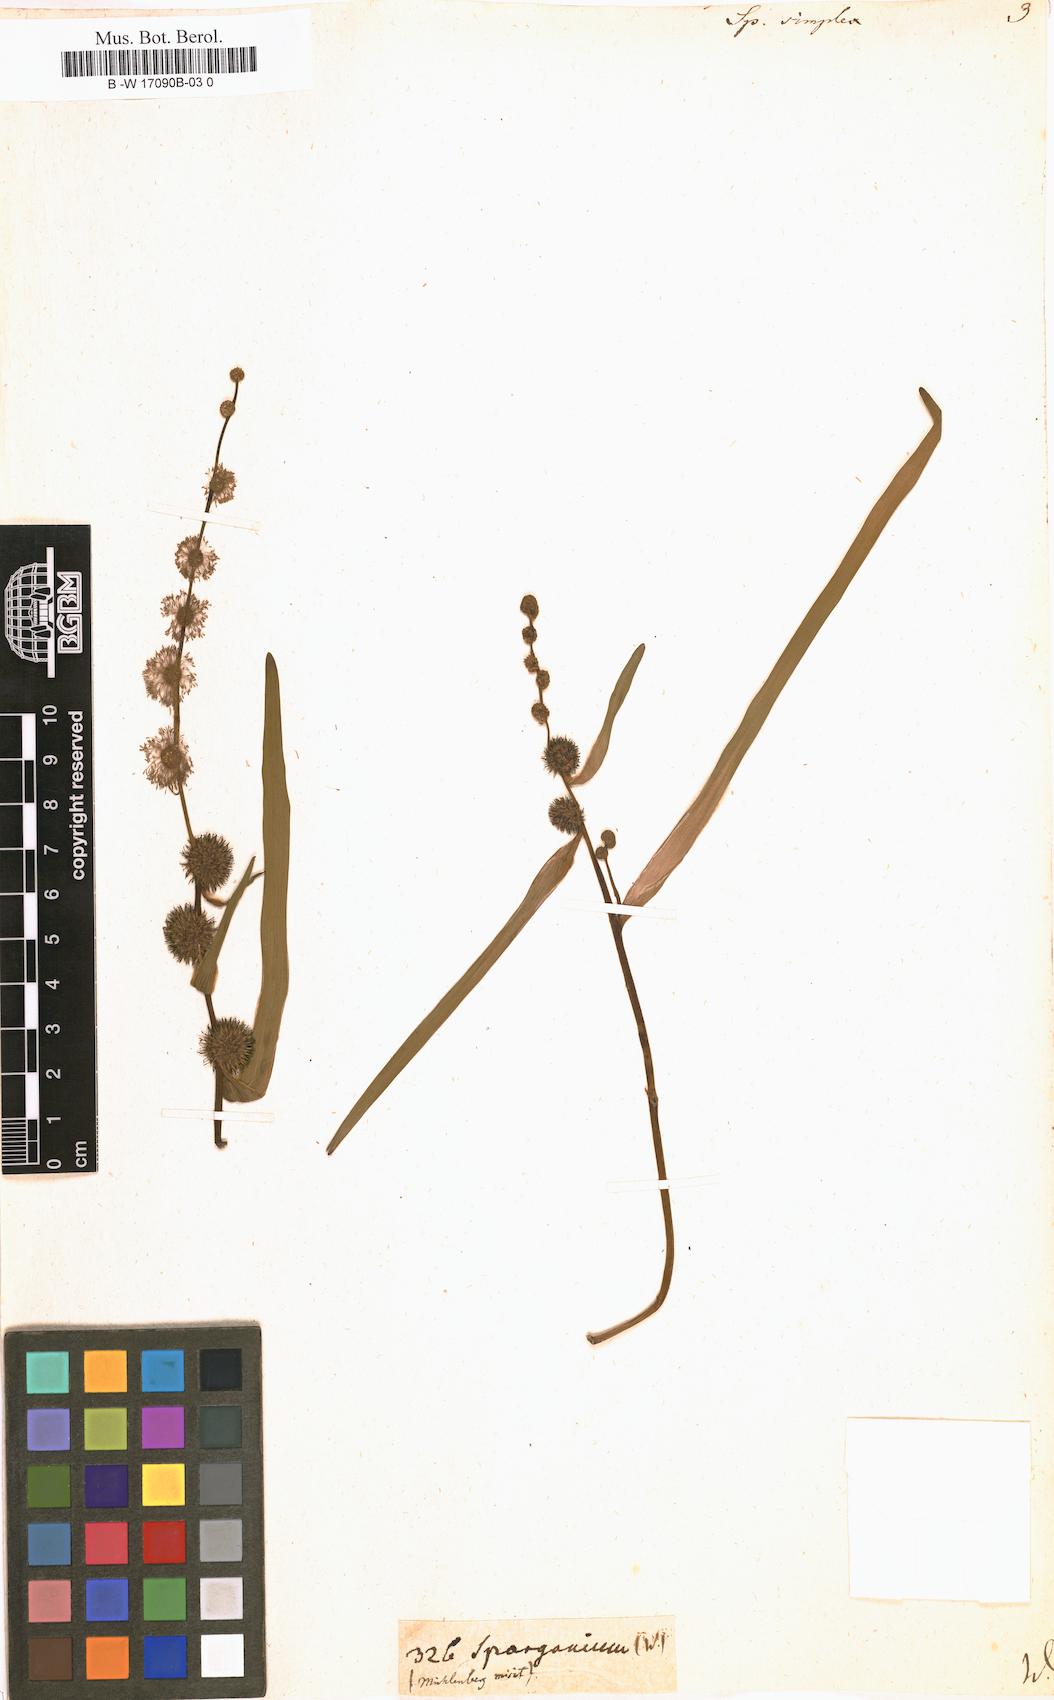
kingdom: Plantae
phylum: Tracheophyta
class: Liliopsida
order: Poales
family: Typhaceae
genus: Sparganium
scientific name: Sparganium
